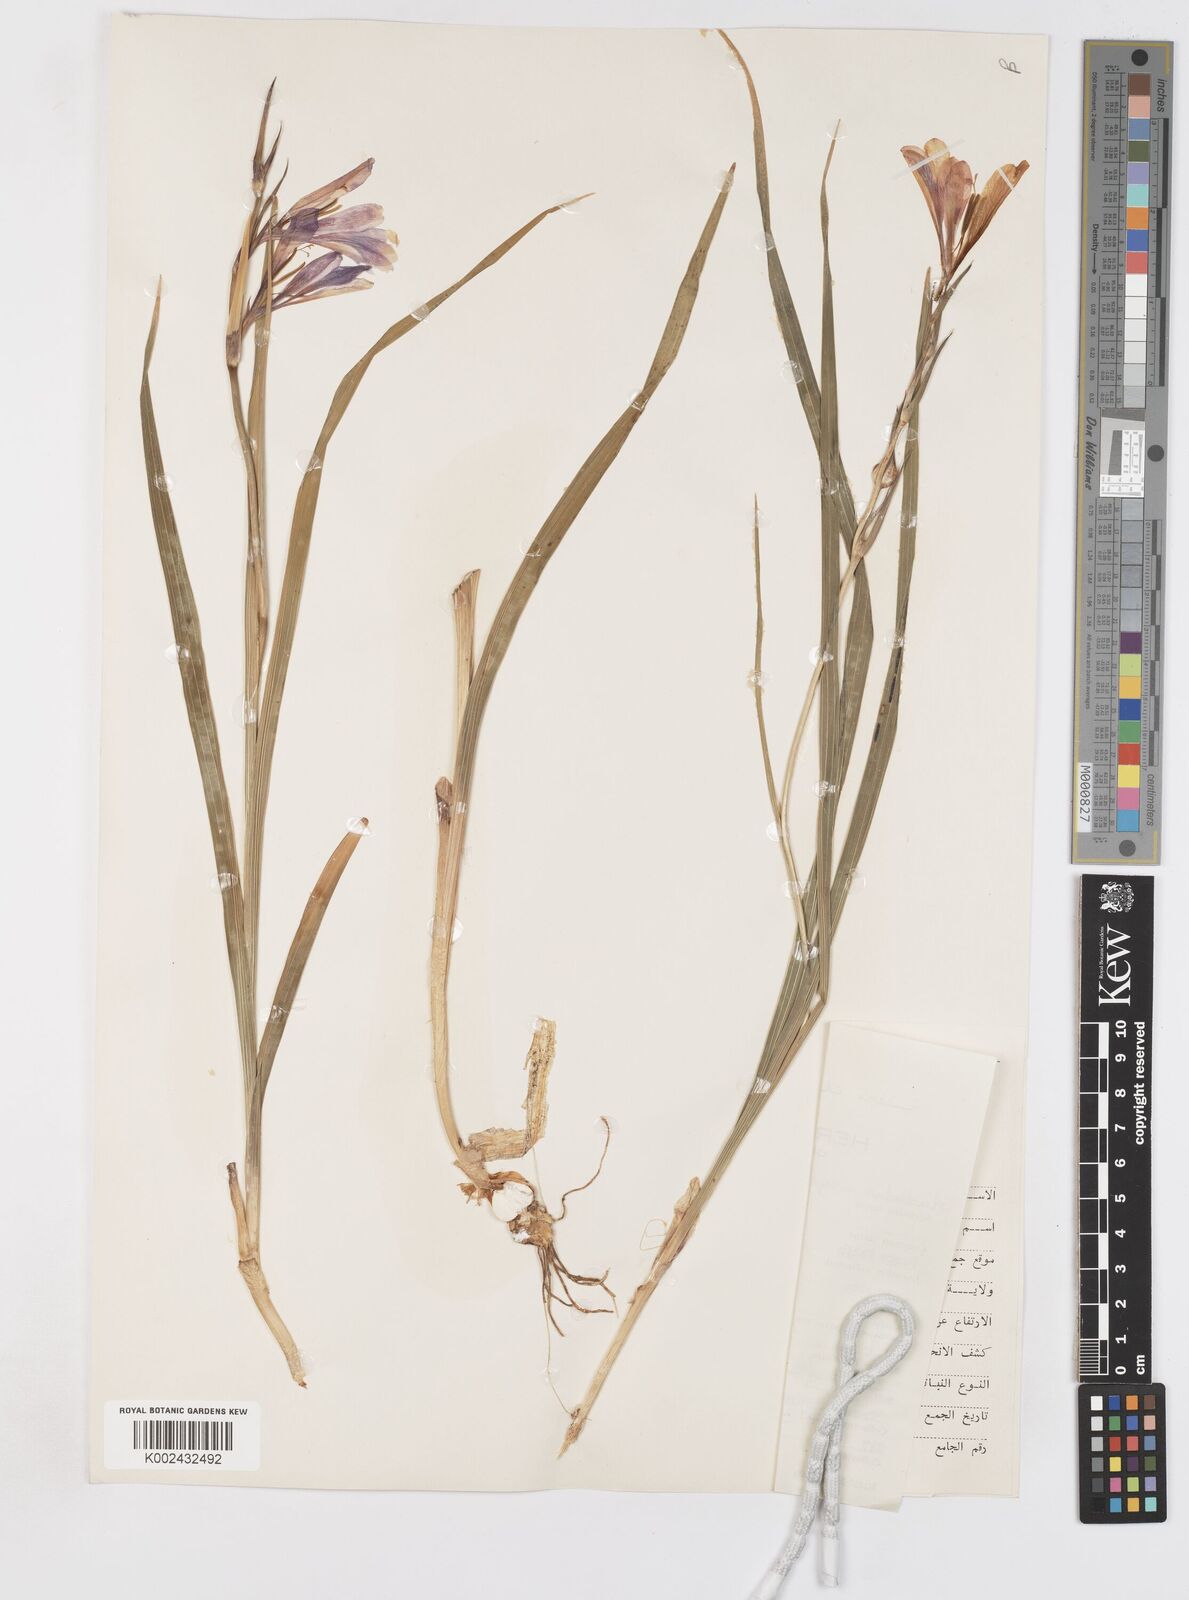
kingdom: Plantae
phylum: Tracheophyta
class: Liliopsida
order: Asparagales
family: Iridaceae
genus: Gladiolus
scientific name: Gladiolus italicus
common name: Field gladiolus
